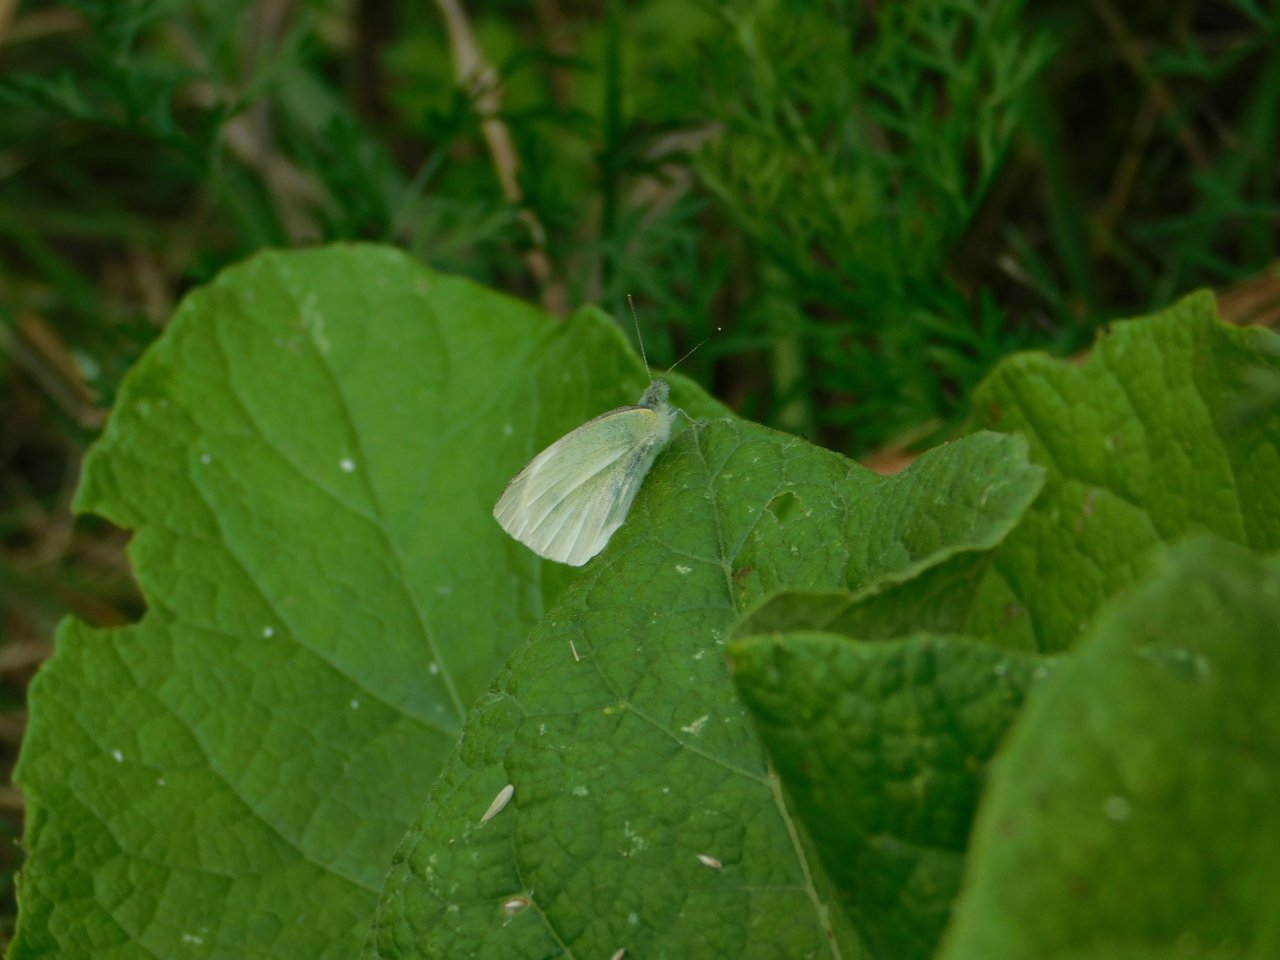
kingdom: Animalia
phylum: Arthropoda
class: Insecta
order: Lepidoptera
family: Pieridae
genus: Pieris
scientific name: Pieris rapae
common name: Cabbage White
